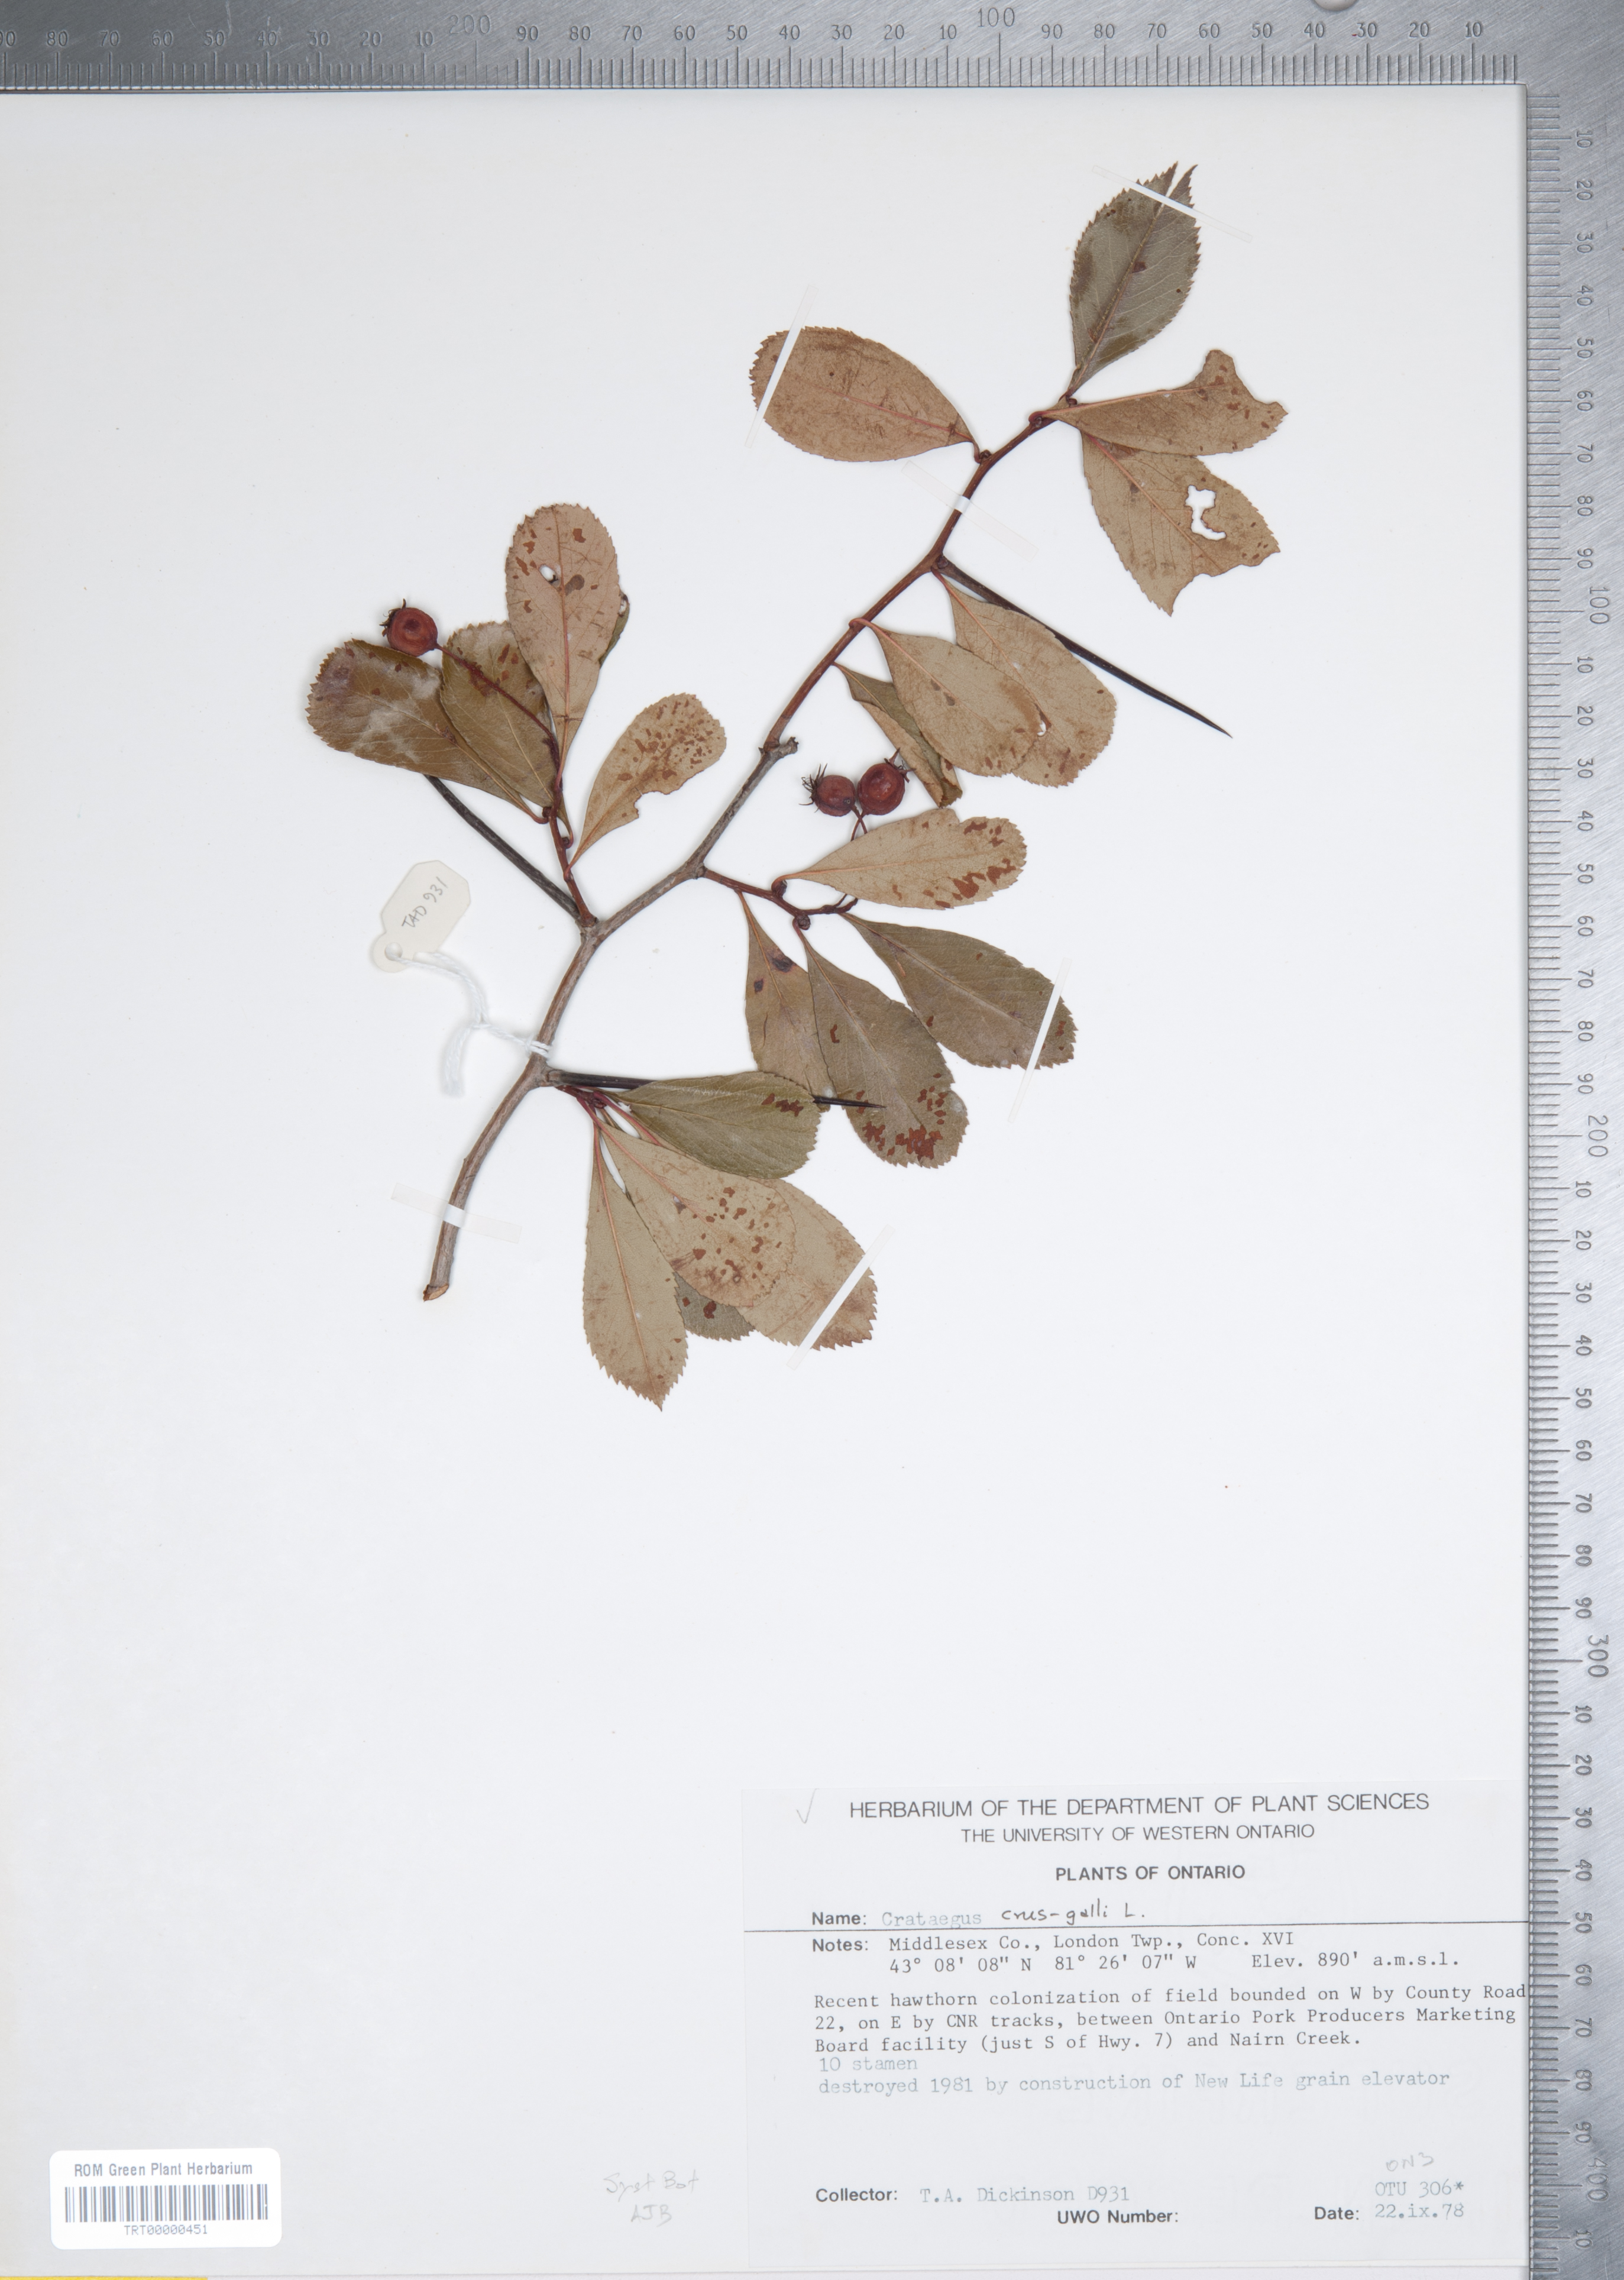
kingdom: Plantae
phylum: Tracheophyta
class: Magnoliopsida
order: Rosales
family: Rosaceae
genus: Crataegus
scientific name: Crataegus crus-galli
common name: Cockspurthorn
